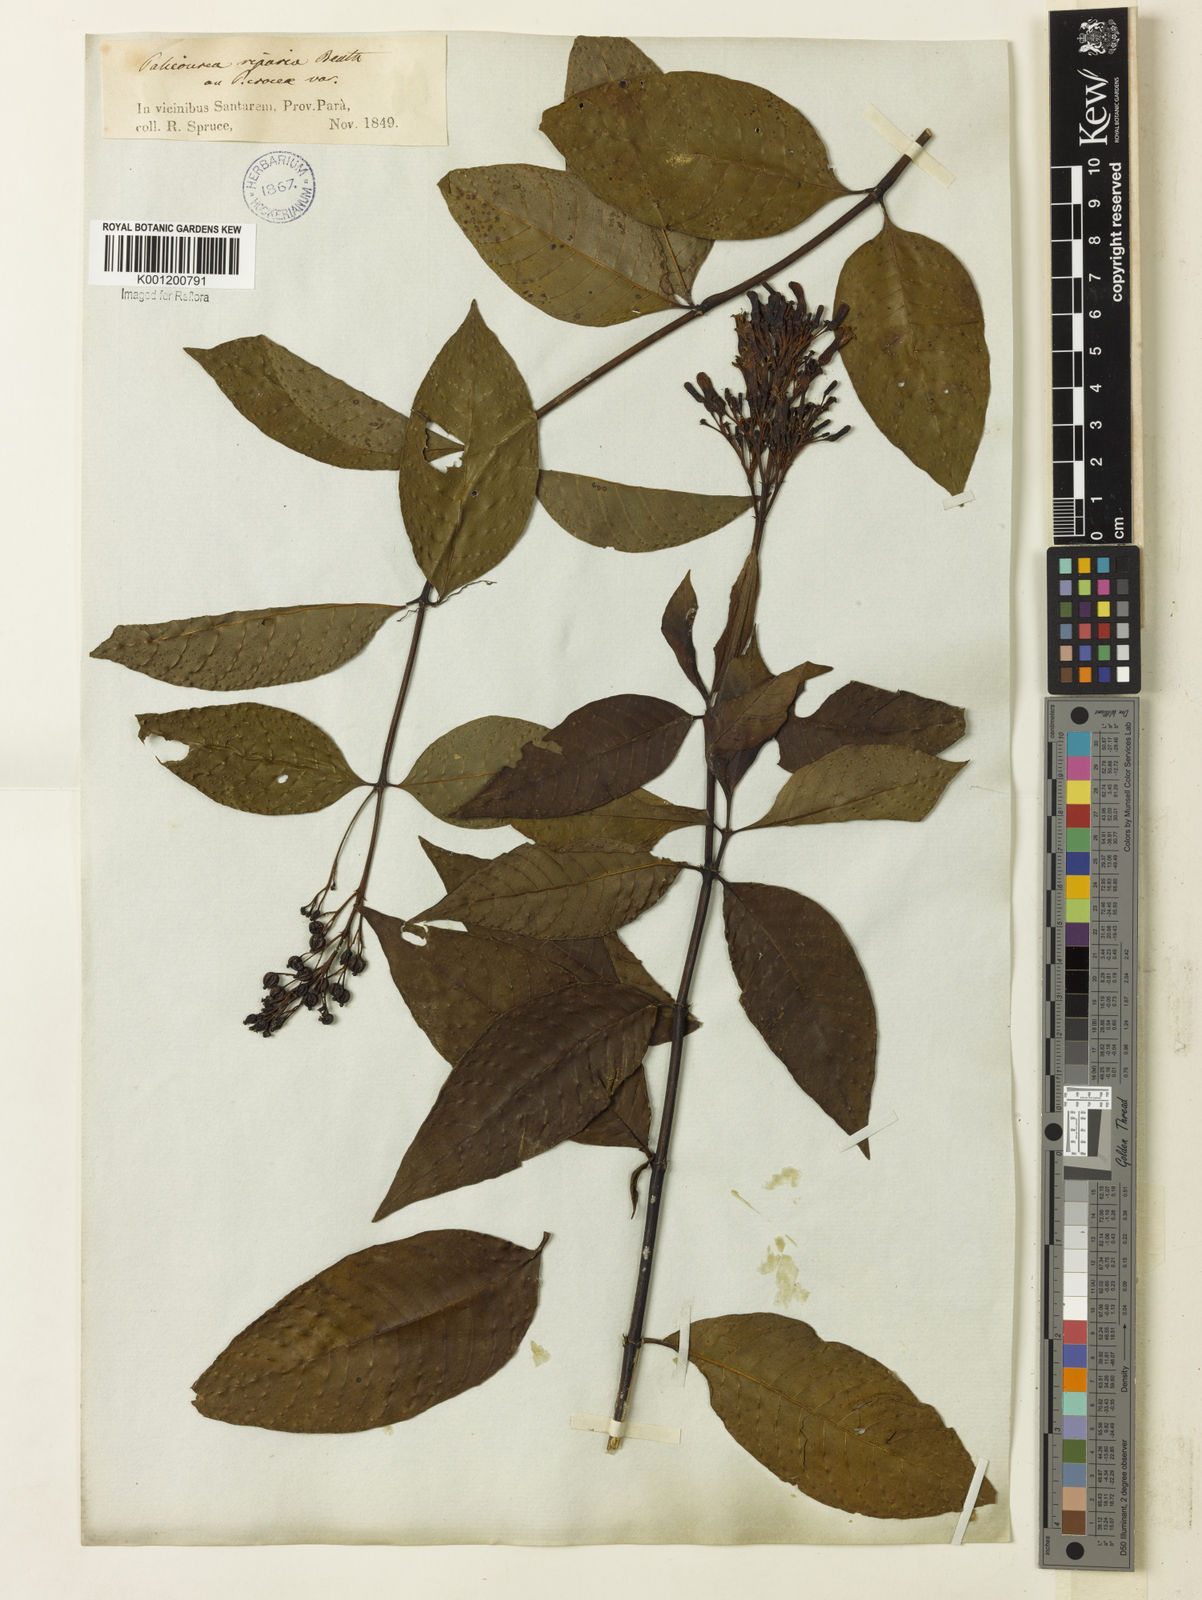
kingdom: Plantae
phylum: Tracheophyta
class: Magnoliopsida
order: Gentianales
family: Rubiaceae
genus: Palicourea
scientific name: Palicourea crocea
